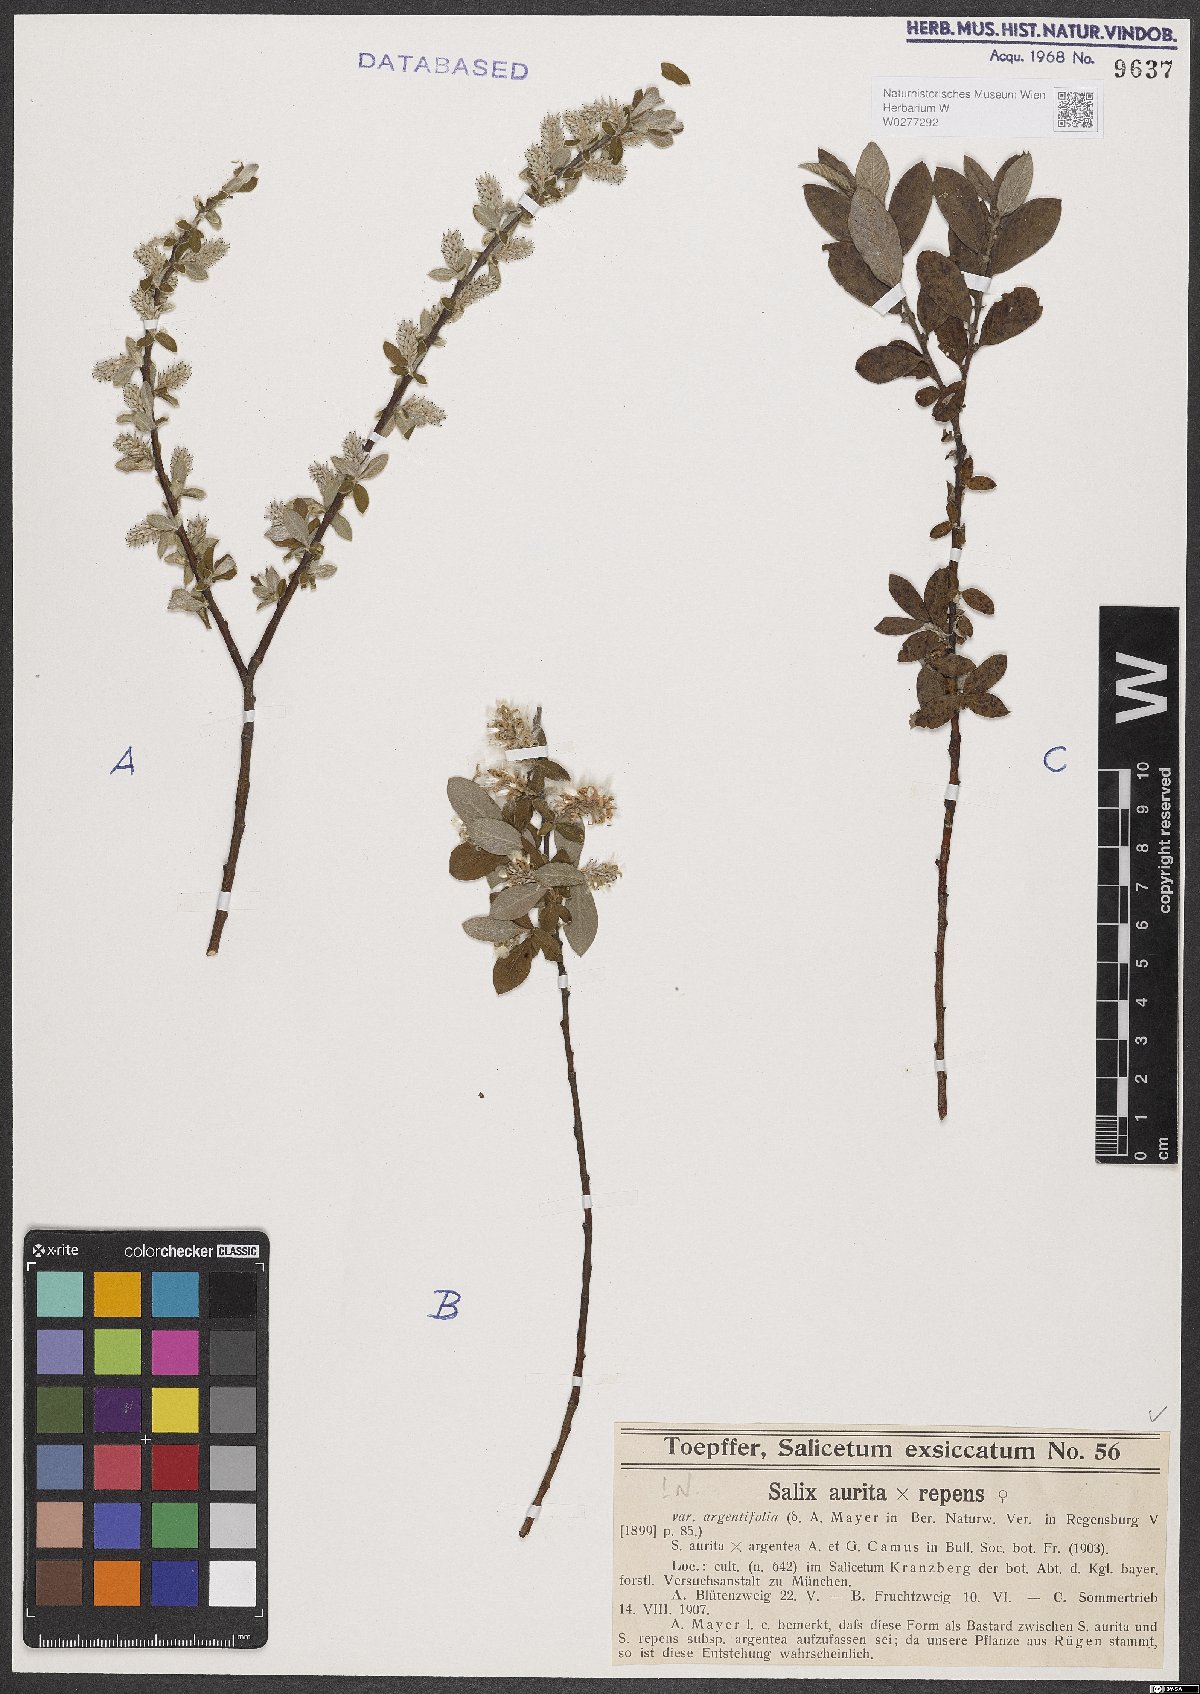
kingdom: Plantae
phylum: Tracheophyta
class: Magnoliopsida
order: Malpighiales
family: Salicaceae
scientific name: Salicaceae
